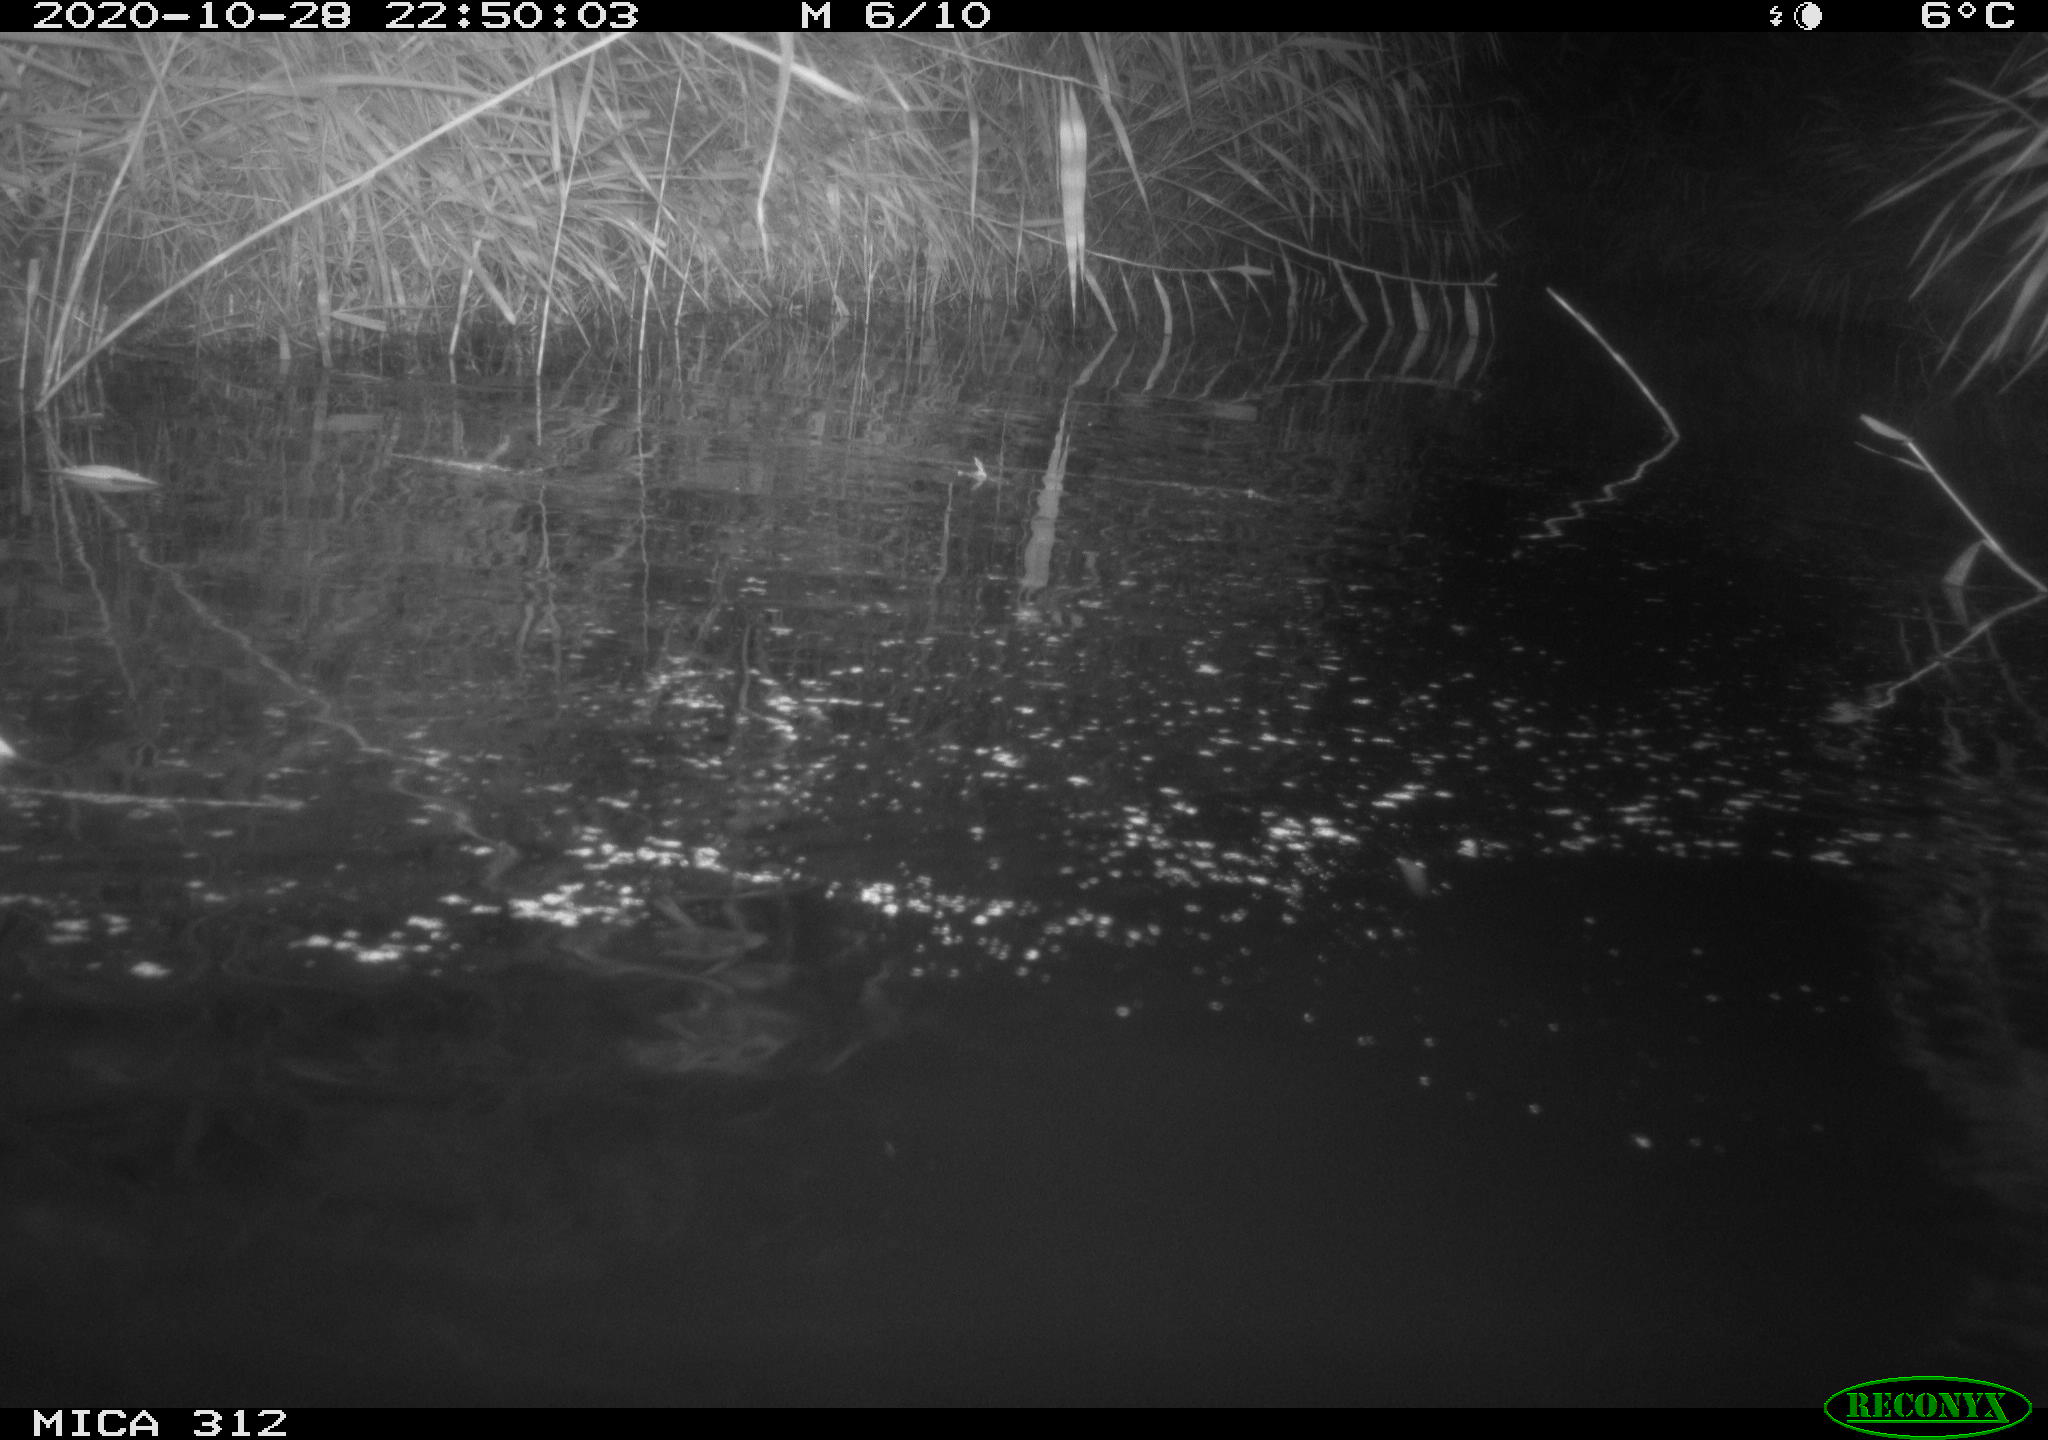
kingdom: Animalia
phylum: Chordata
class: Mammalia
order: Rodentia
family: Muridae
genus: Rattus
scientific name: Rattus norvegicus
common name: Brown rat
